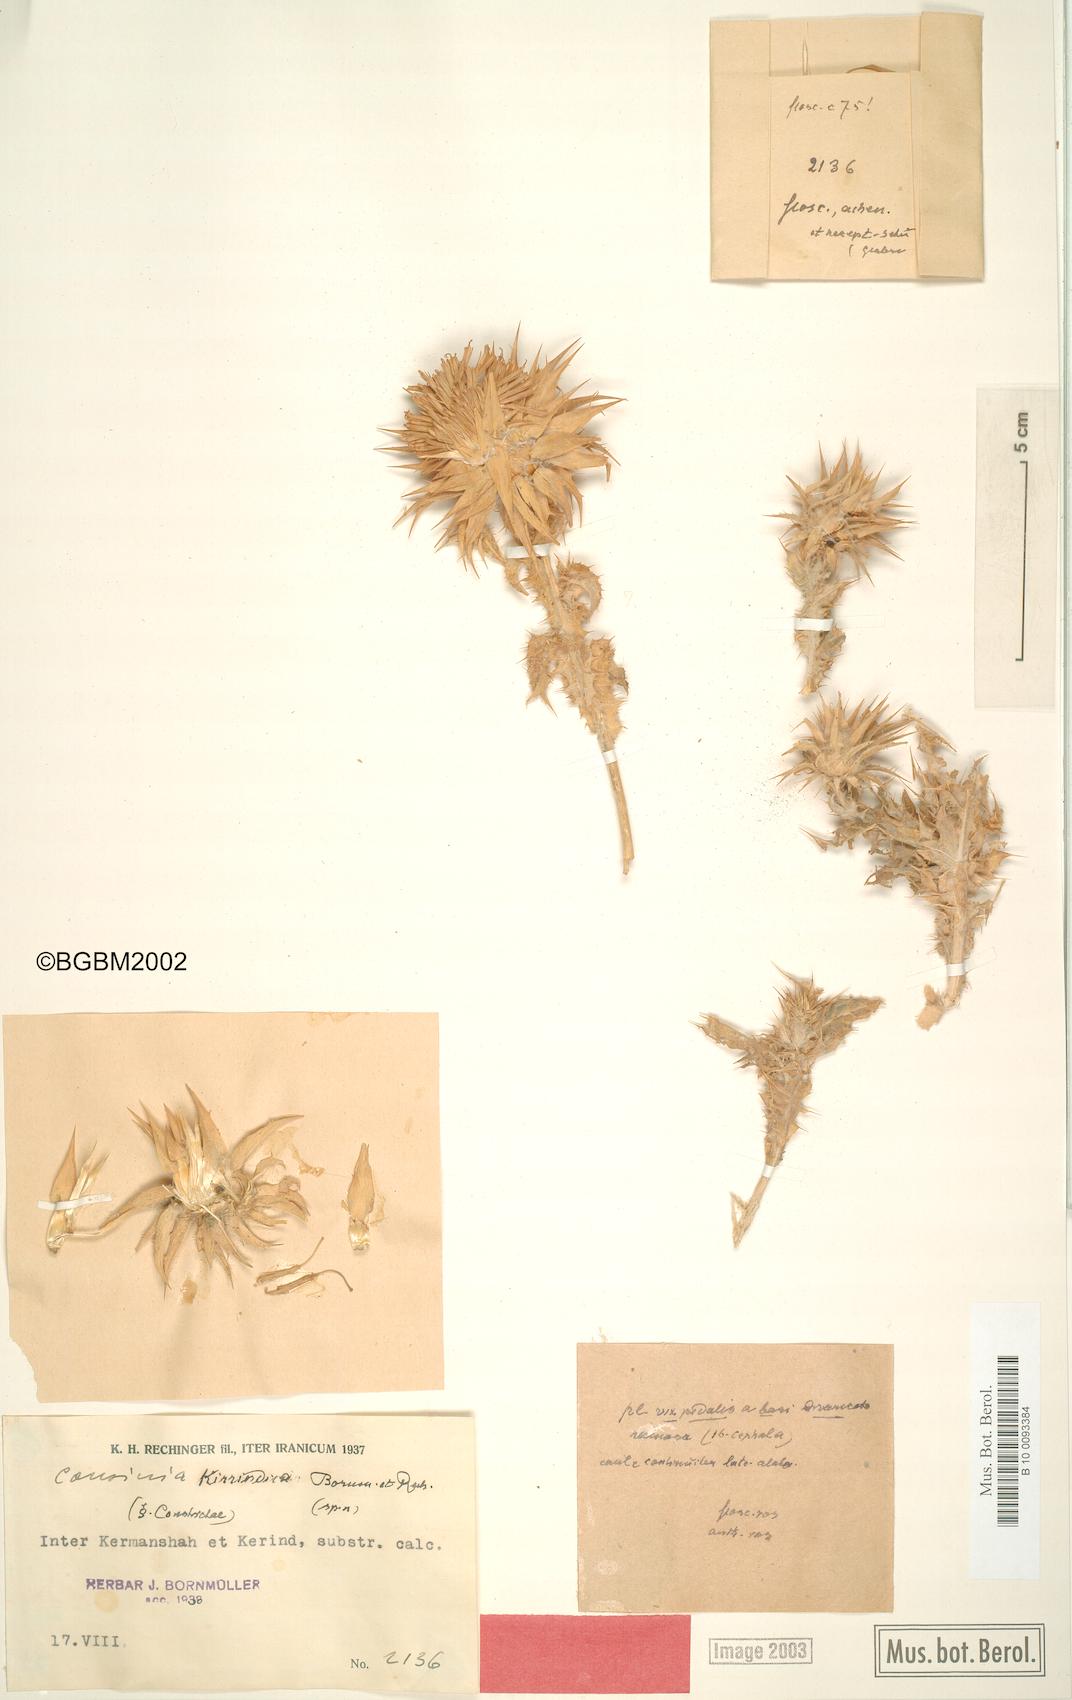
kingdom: Plantae
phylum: Tracheophyta
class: Magnoliopsida
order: Asterales
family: Asteraceae
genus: Cousinia
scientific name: Cousinia noeana
